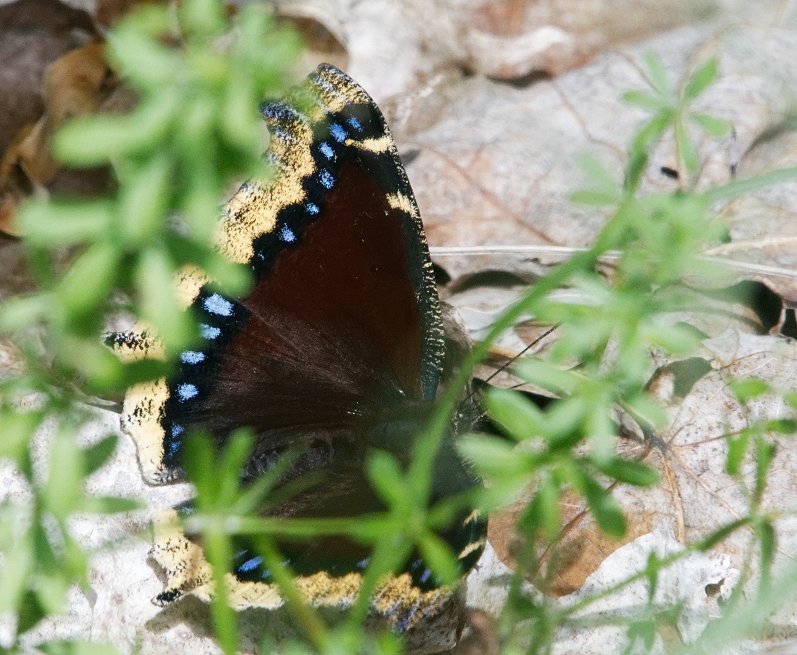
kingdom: Animalia
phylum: Arthropoda
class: Insecta
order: Lepidoptera
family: Nymphalidae
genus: Nymphalis
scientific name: Nymphalis antiopa
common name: Mourning Cloak
